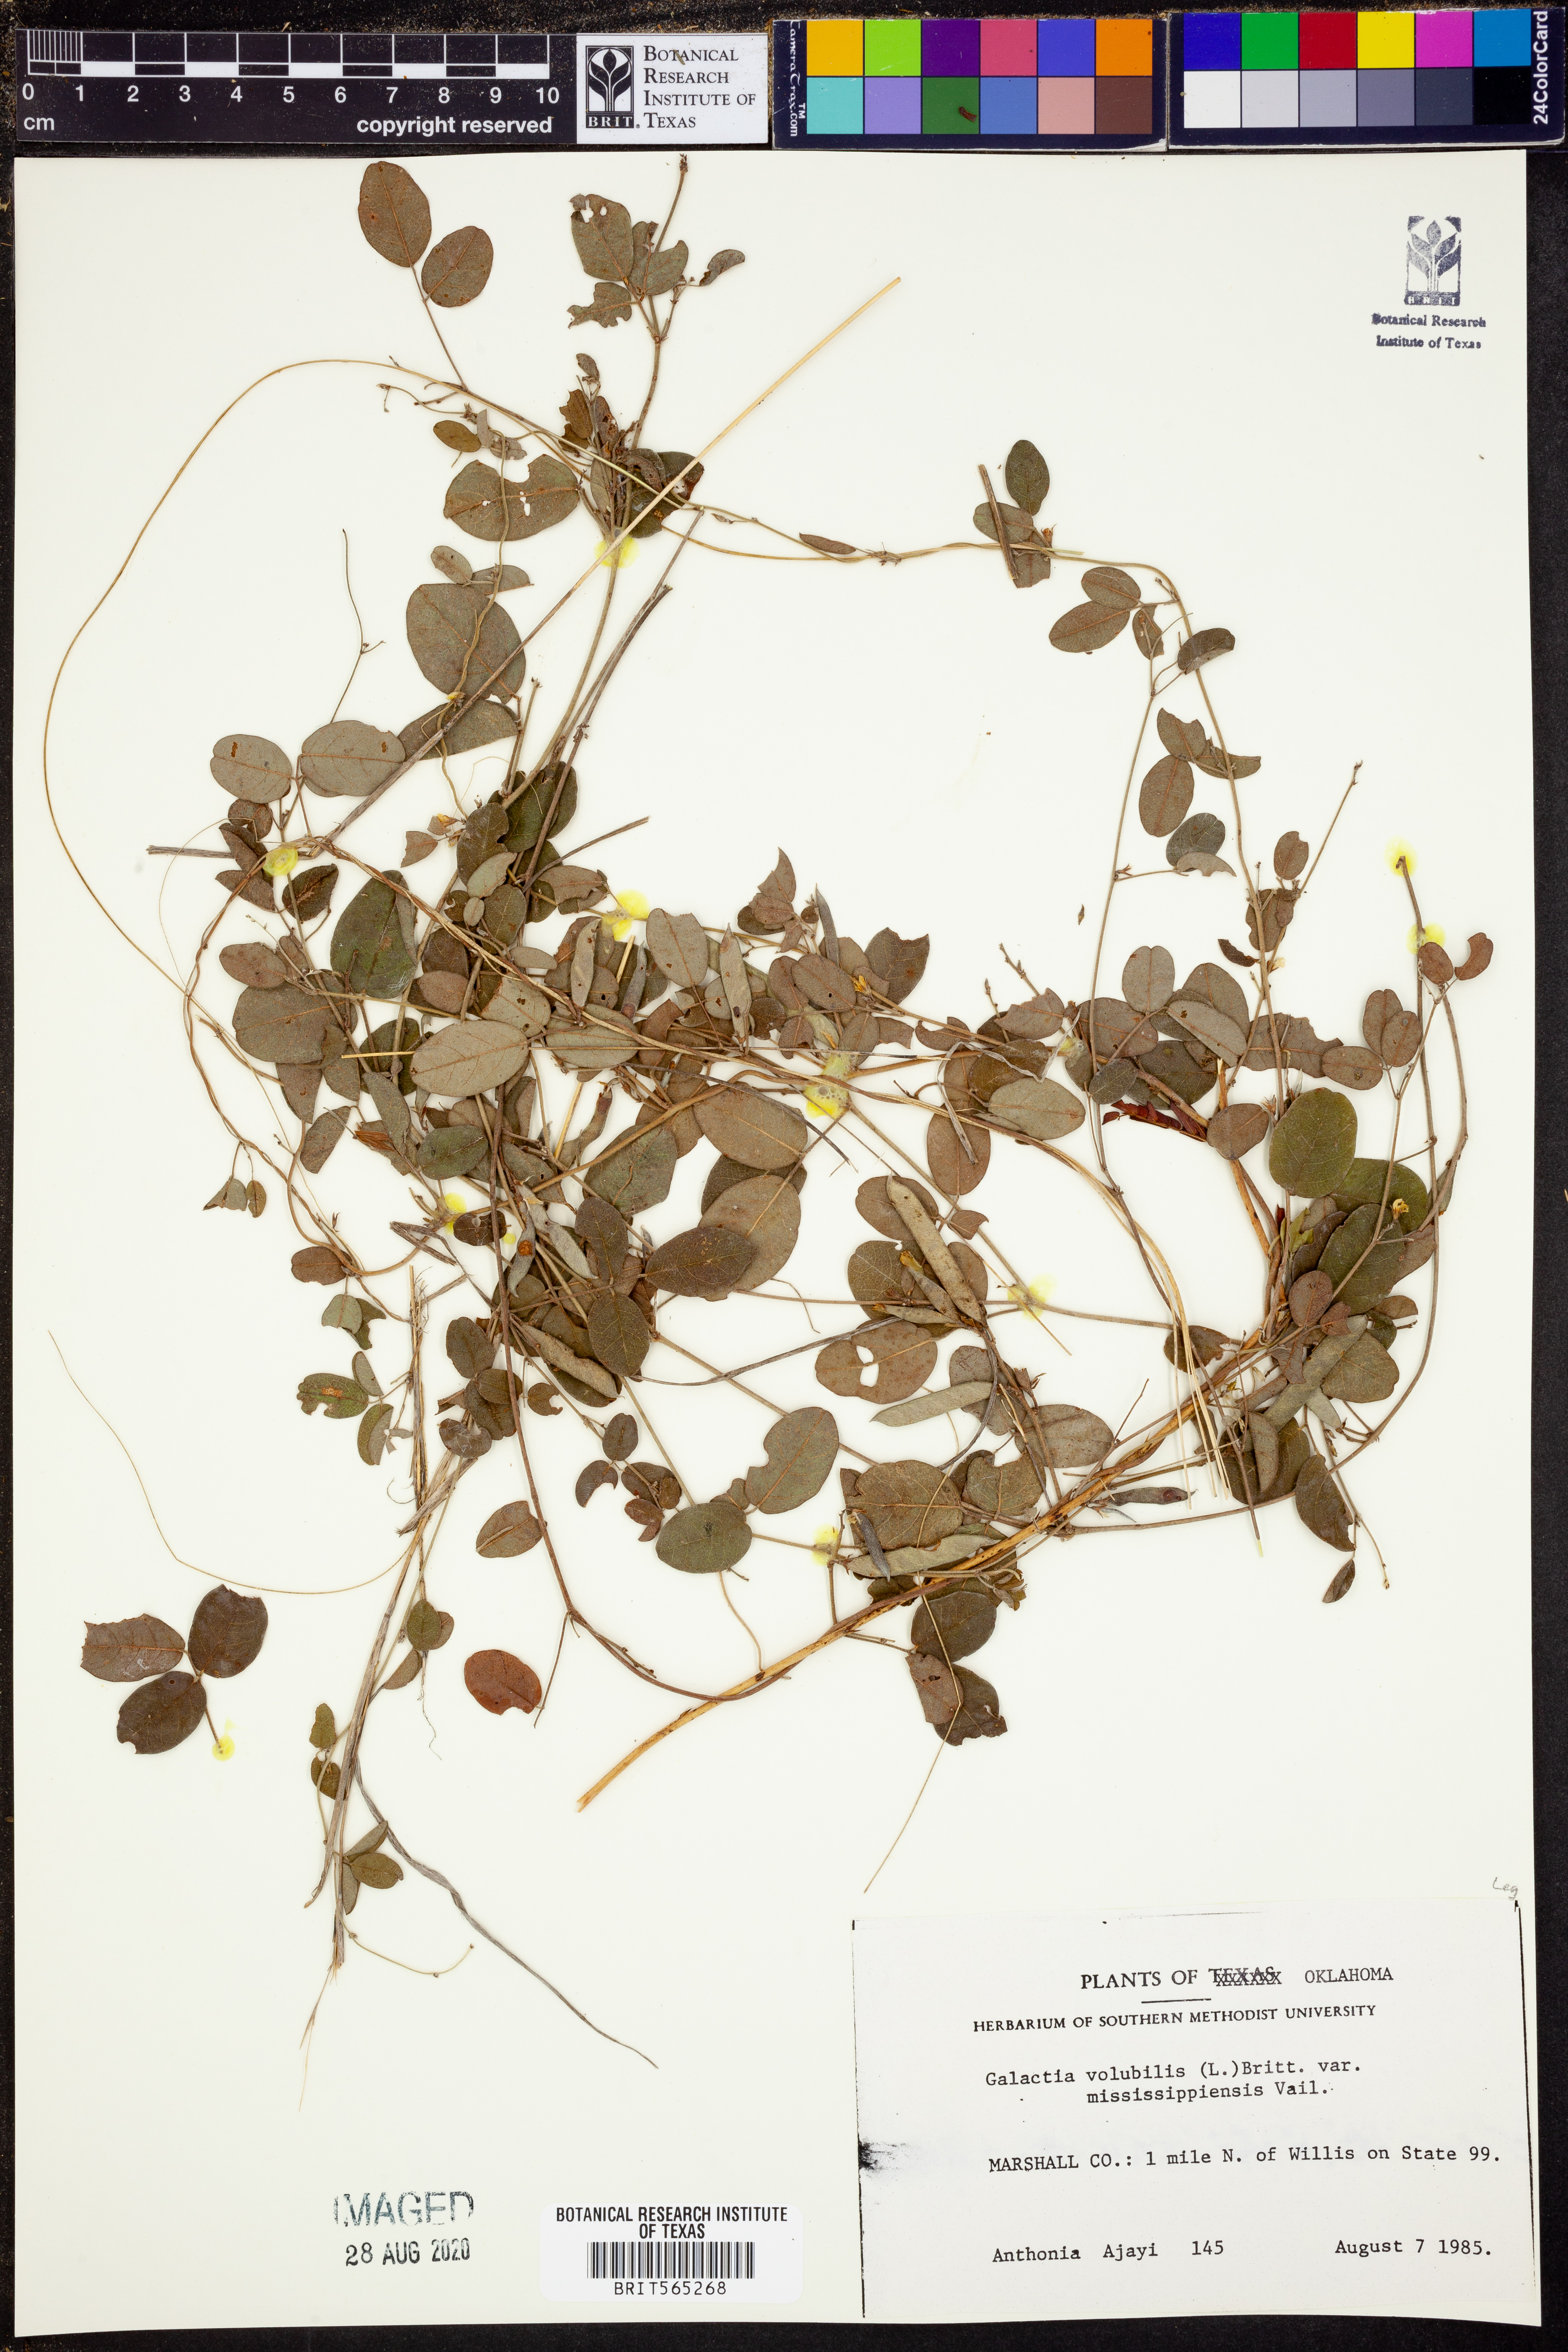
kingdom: Plantae
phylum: Tracheophyta
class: Magnoliopsida
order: Fabales
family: Fabaceae
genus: Galactia
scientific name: Galactia volubilis
